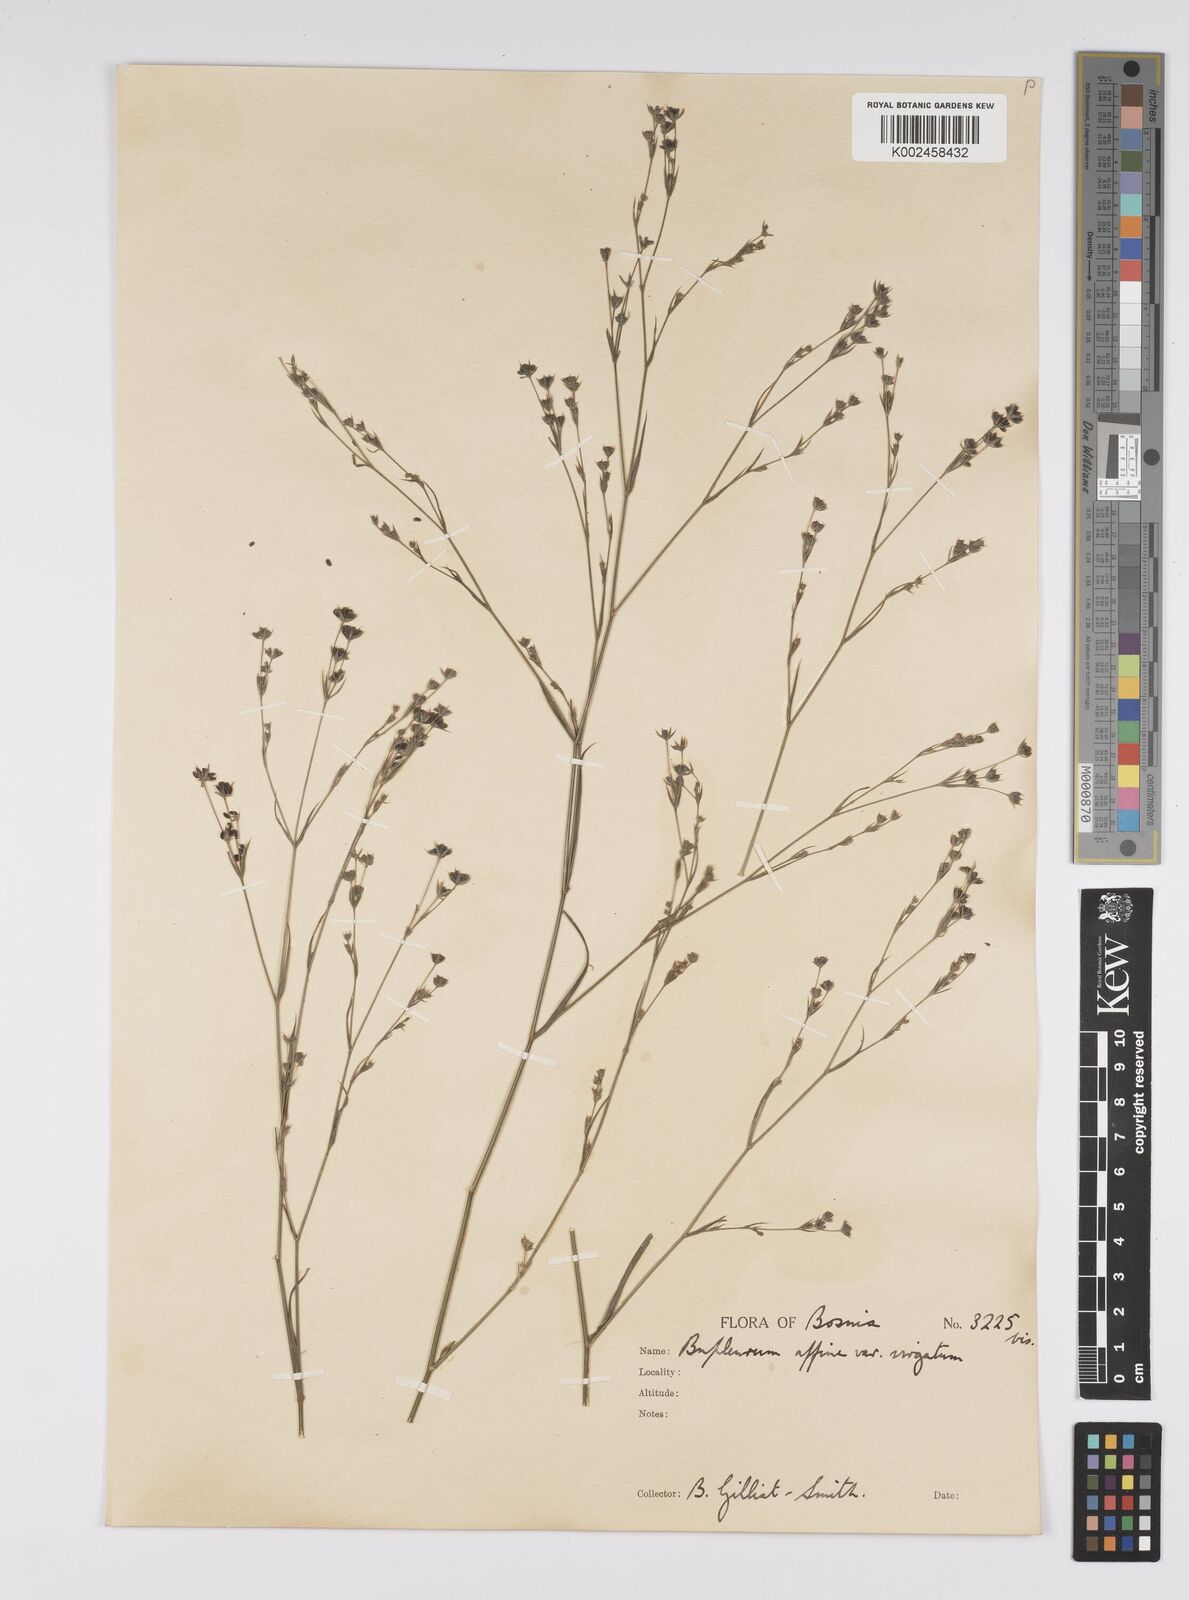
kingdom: Plantae
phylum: Tracheophyta
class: Magnoliopsida
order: Apiales
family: Apiaceae
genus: Bupleurum
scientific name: Bupleurum affine
